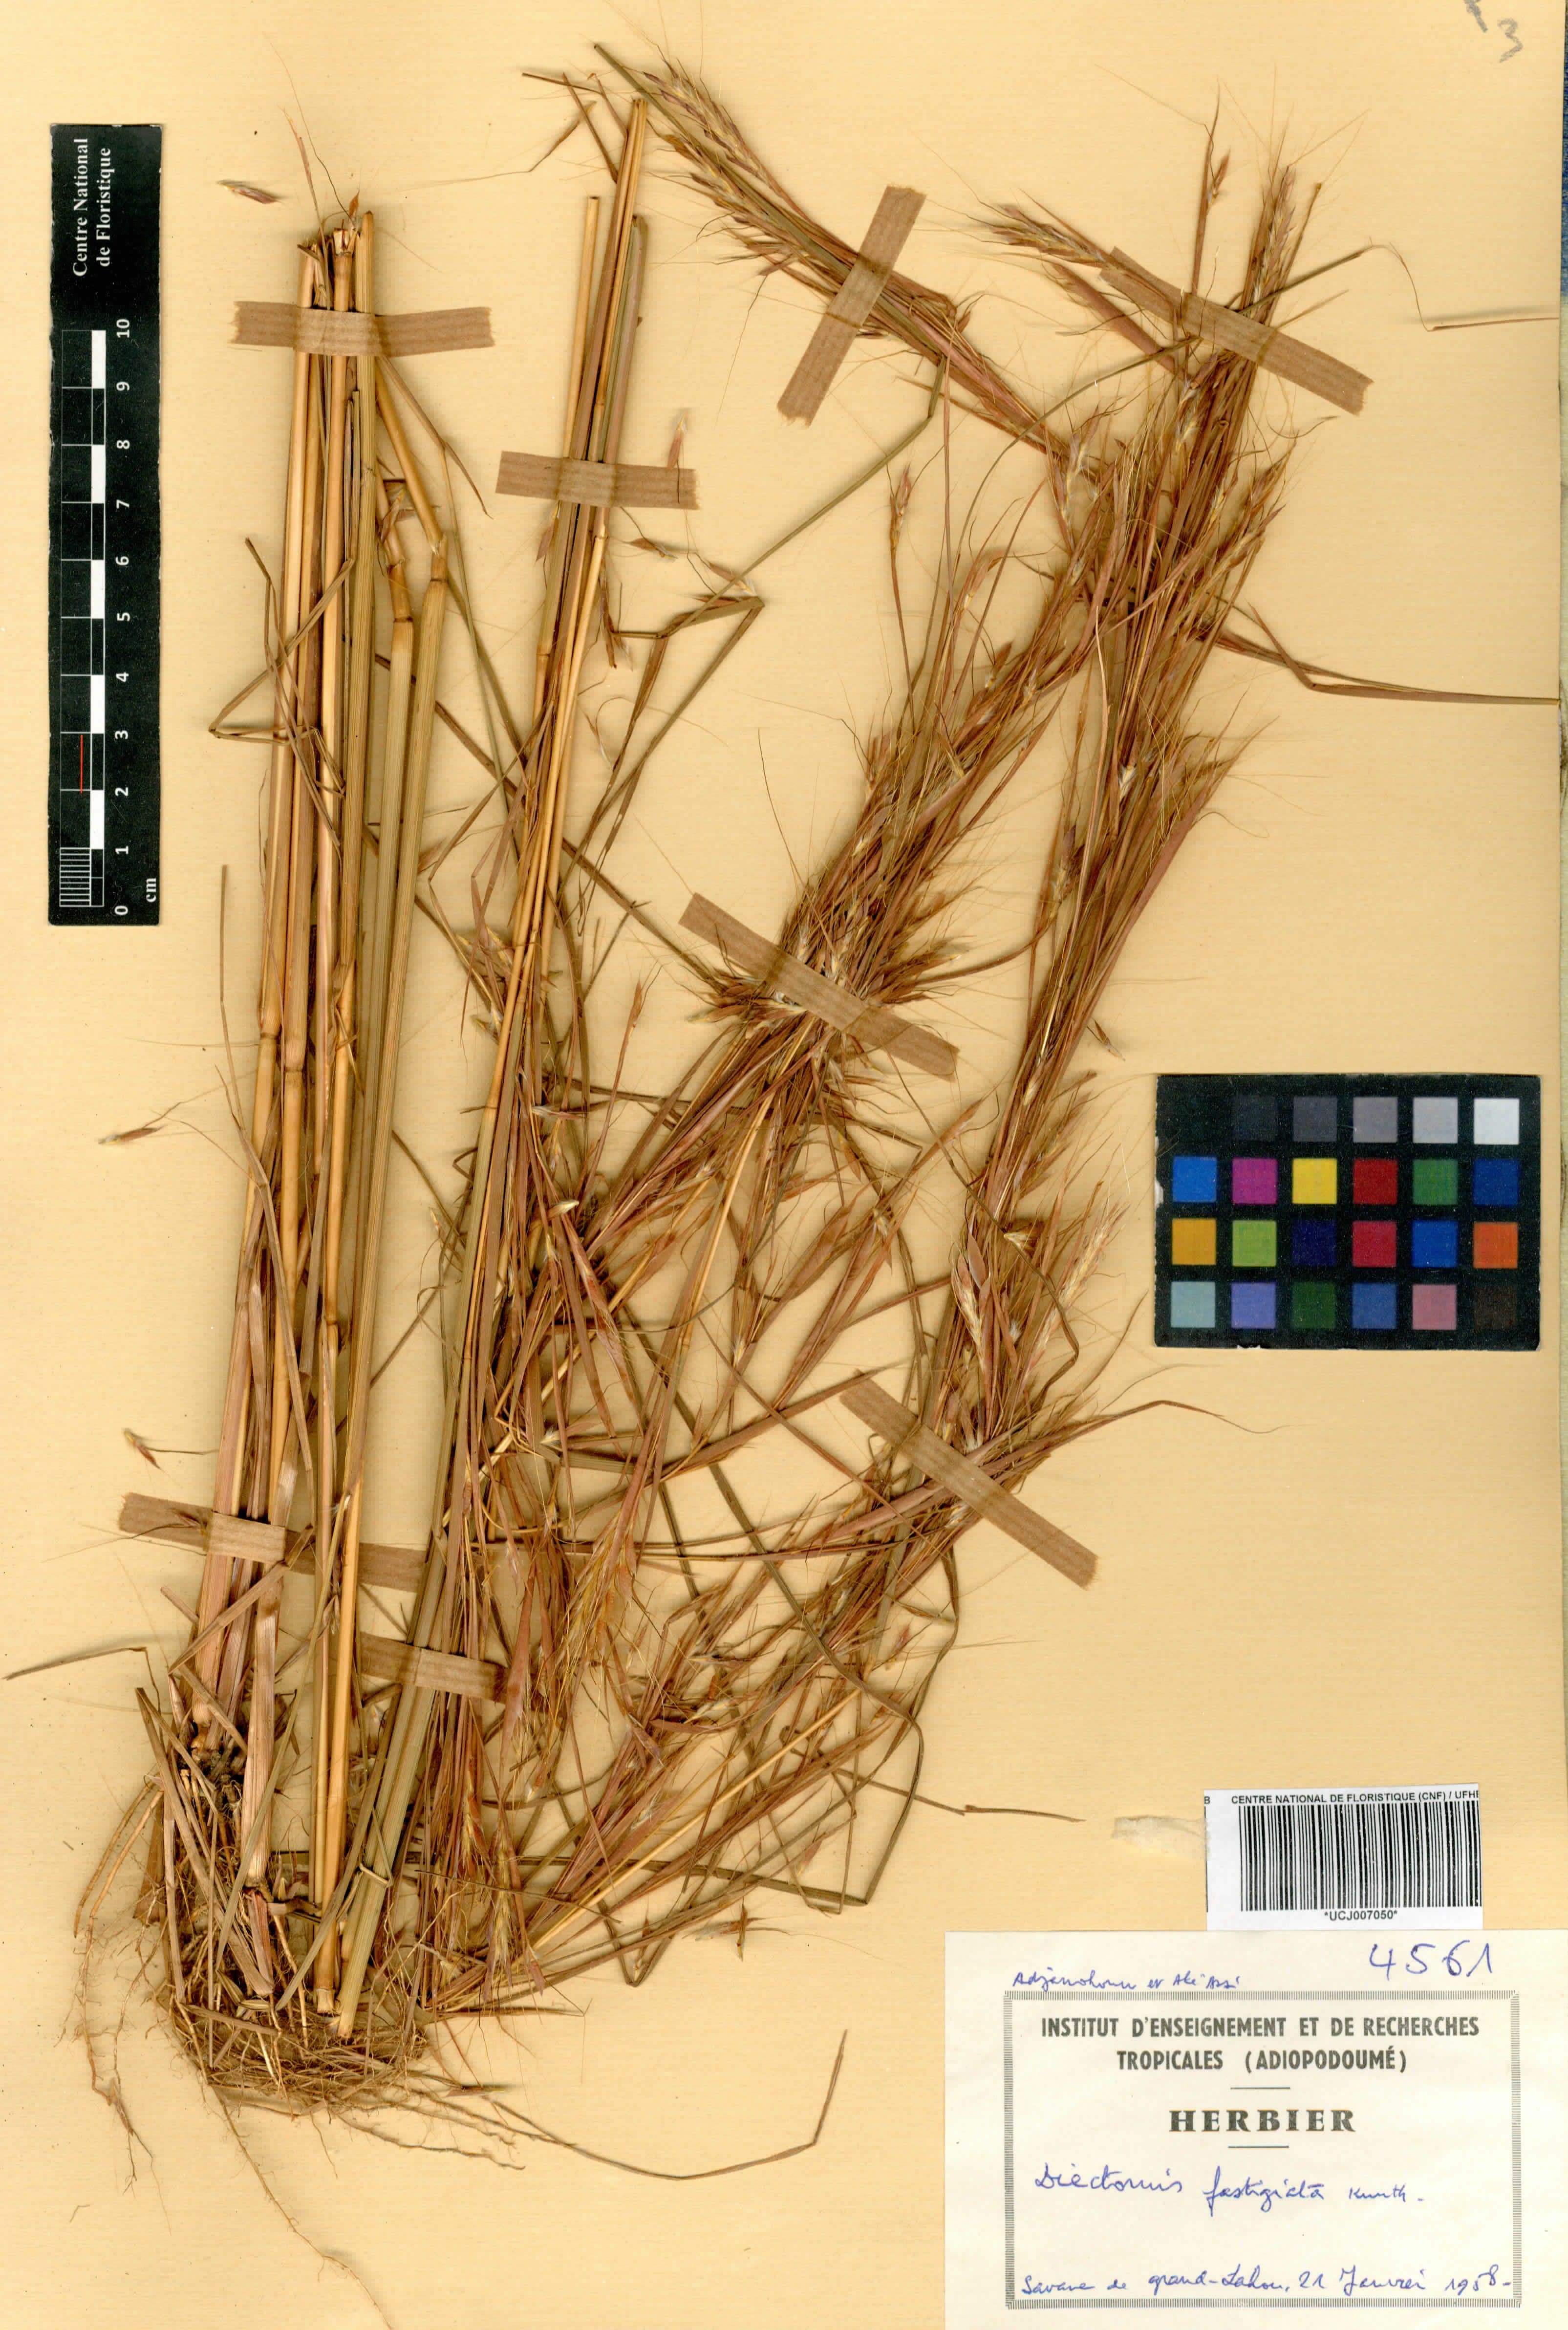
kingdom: Plantae
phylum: Tracheophyta
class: Liliopsida
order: Poales
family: Poaceae
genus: Diectomis
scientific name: Diectomis fastigiata
